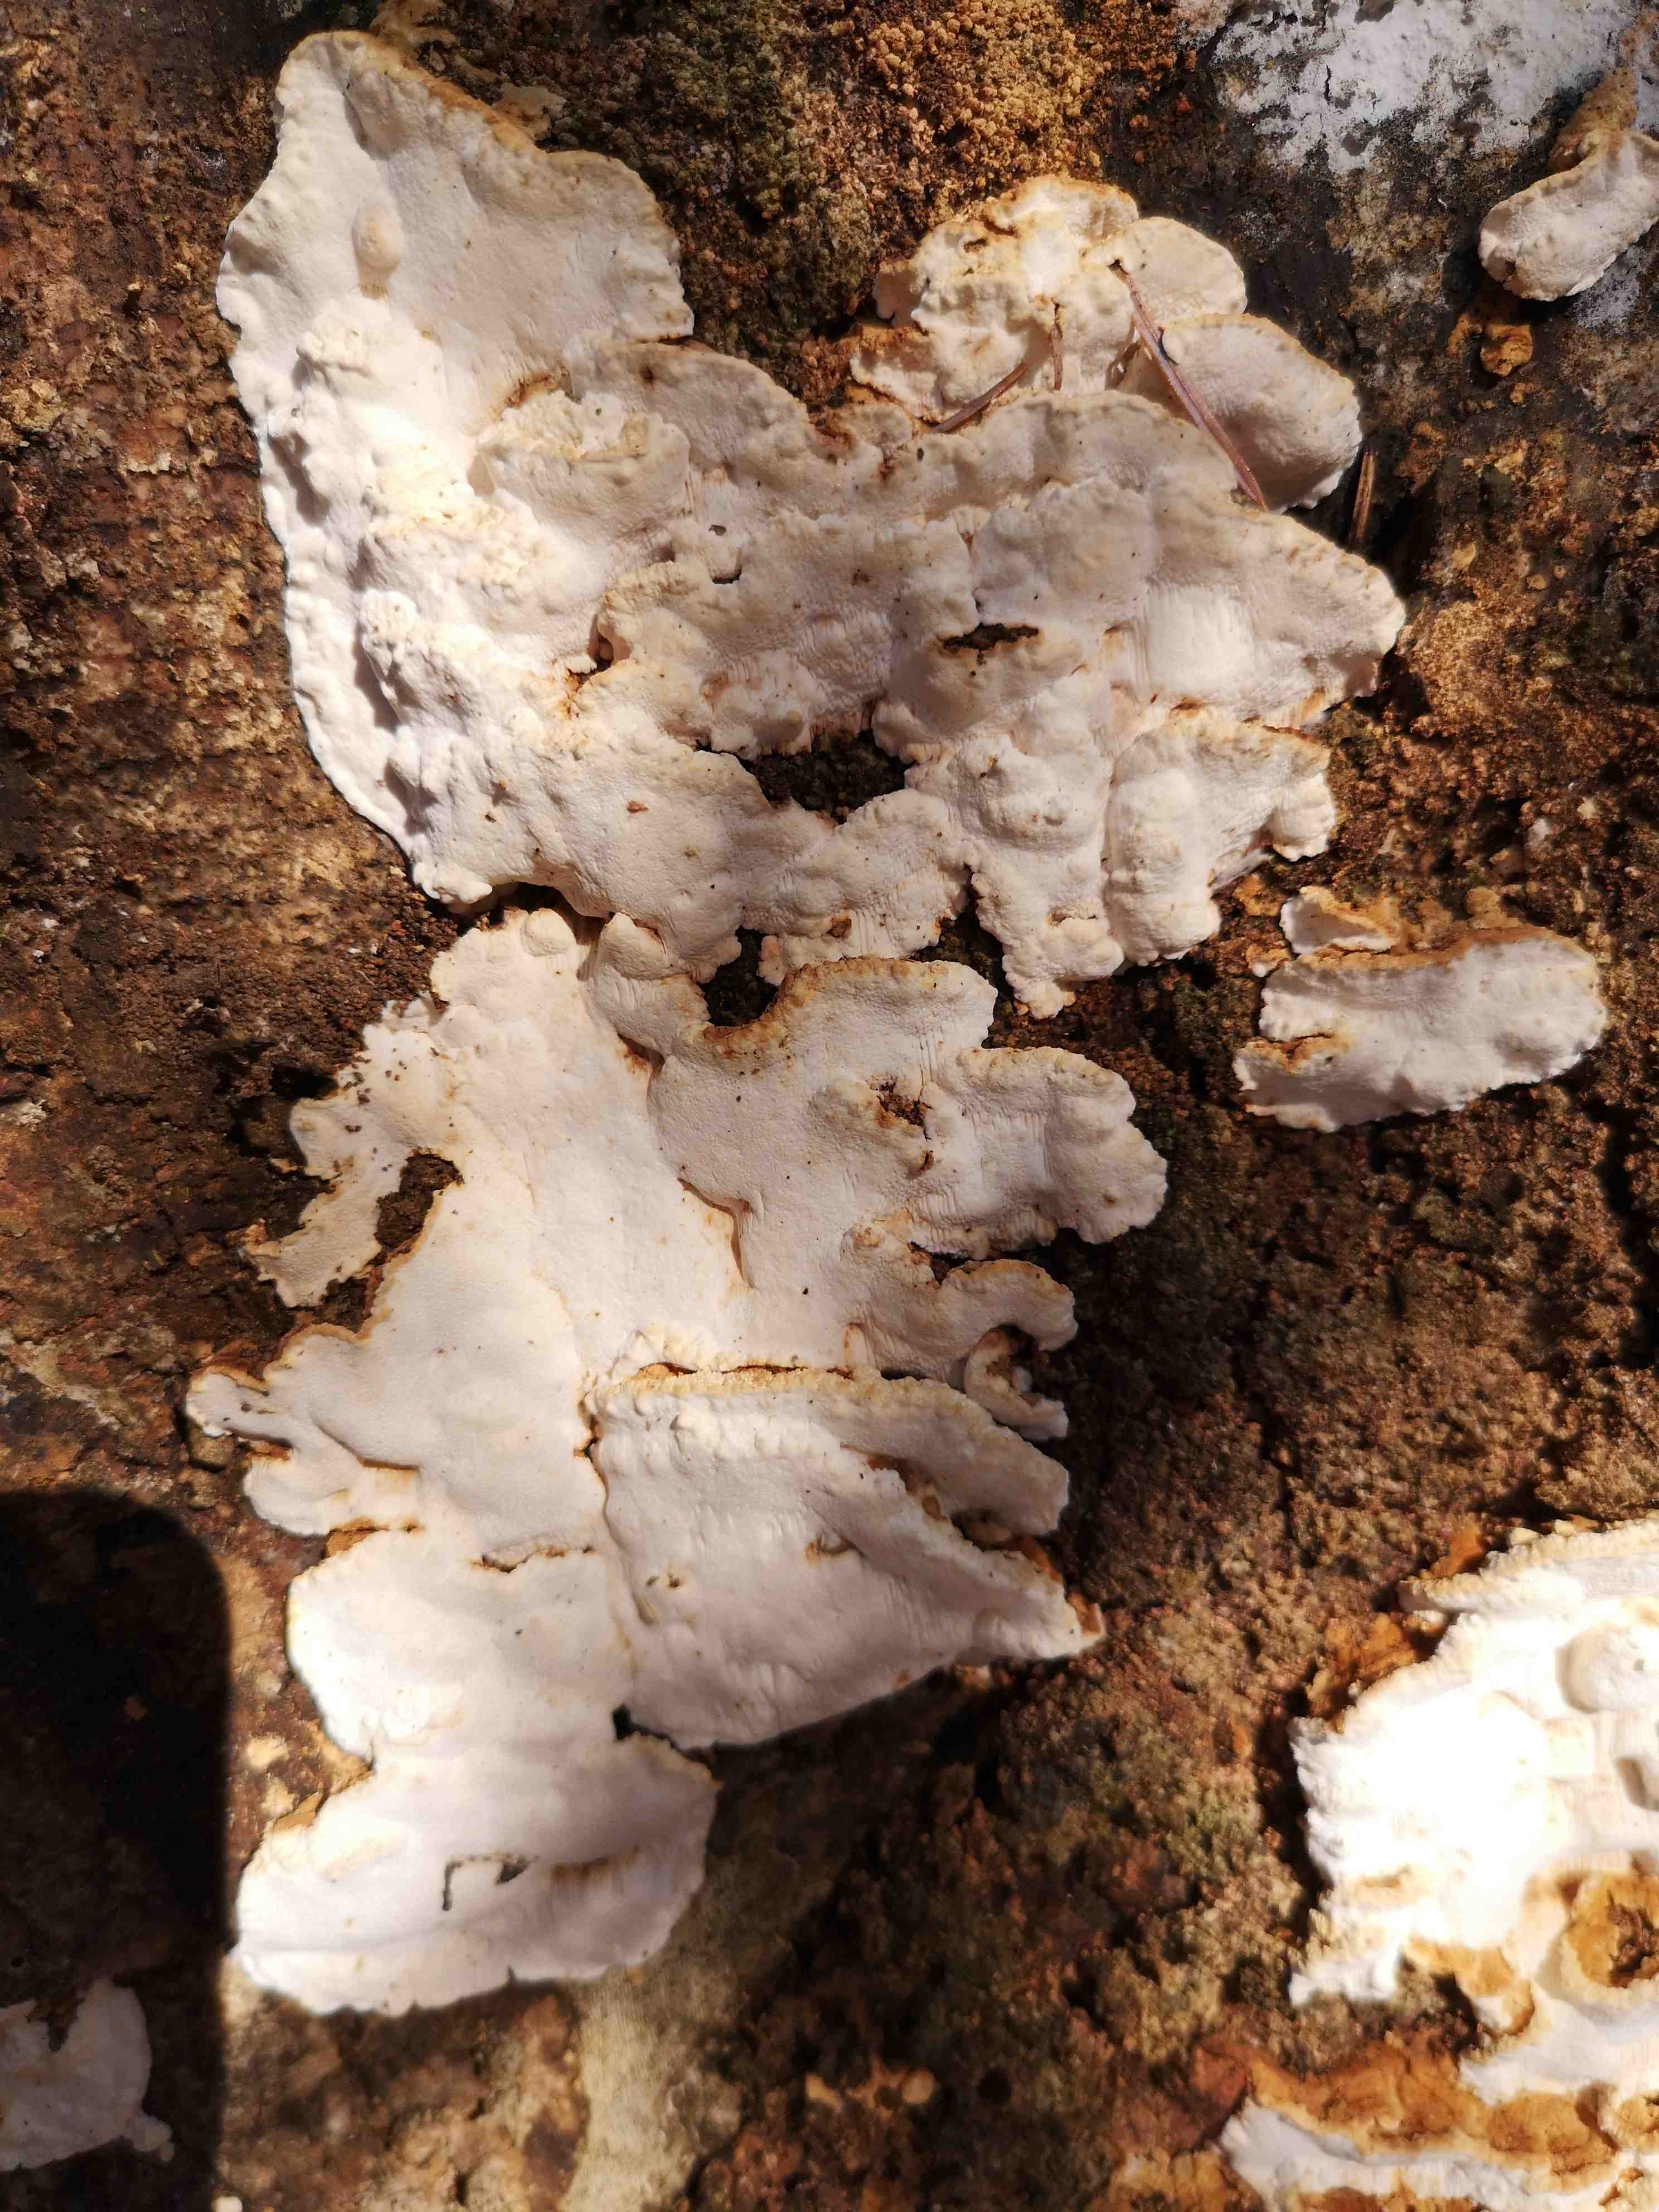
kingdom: Fungi
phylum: Basidiomycota
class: Agaricomycetes
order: Polyporales
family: Fomitopsidaceae
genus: Neoantrodia
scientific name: Neoantrodia serialis
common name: række-sejporesvamp
